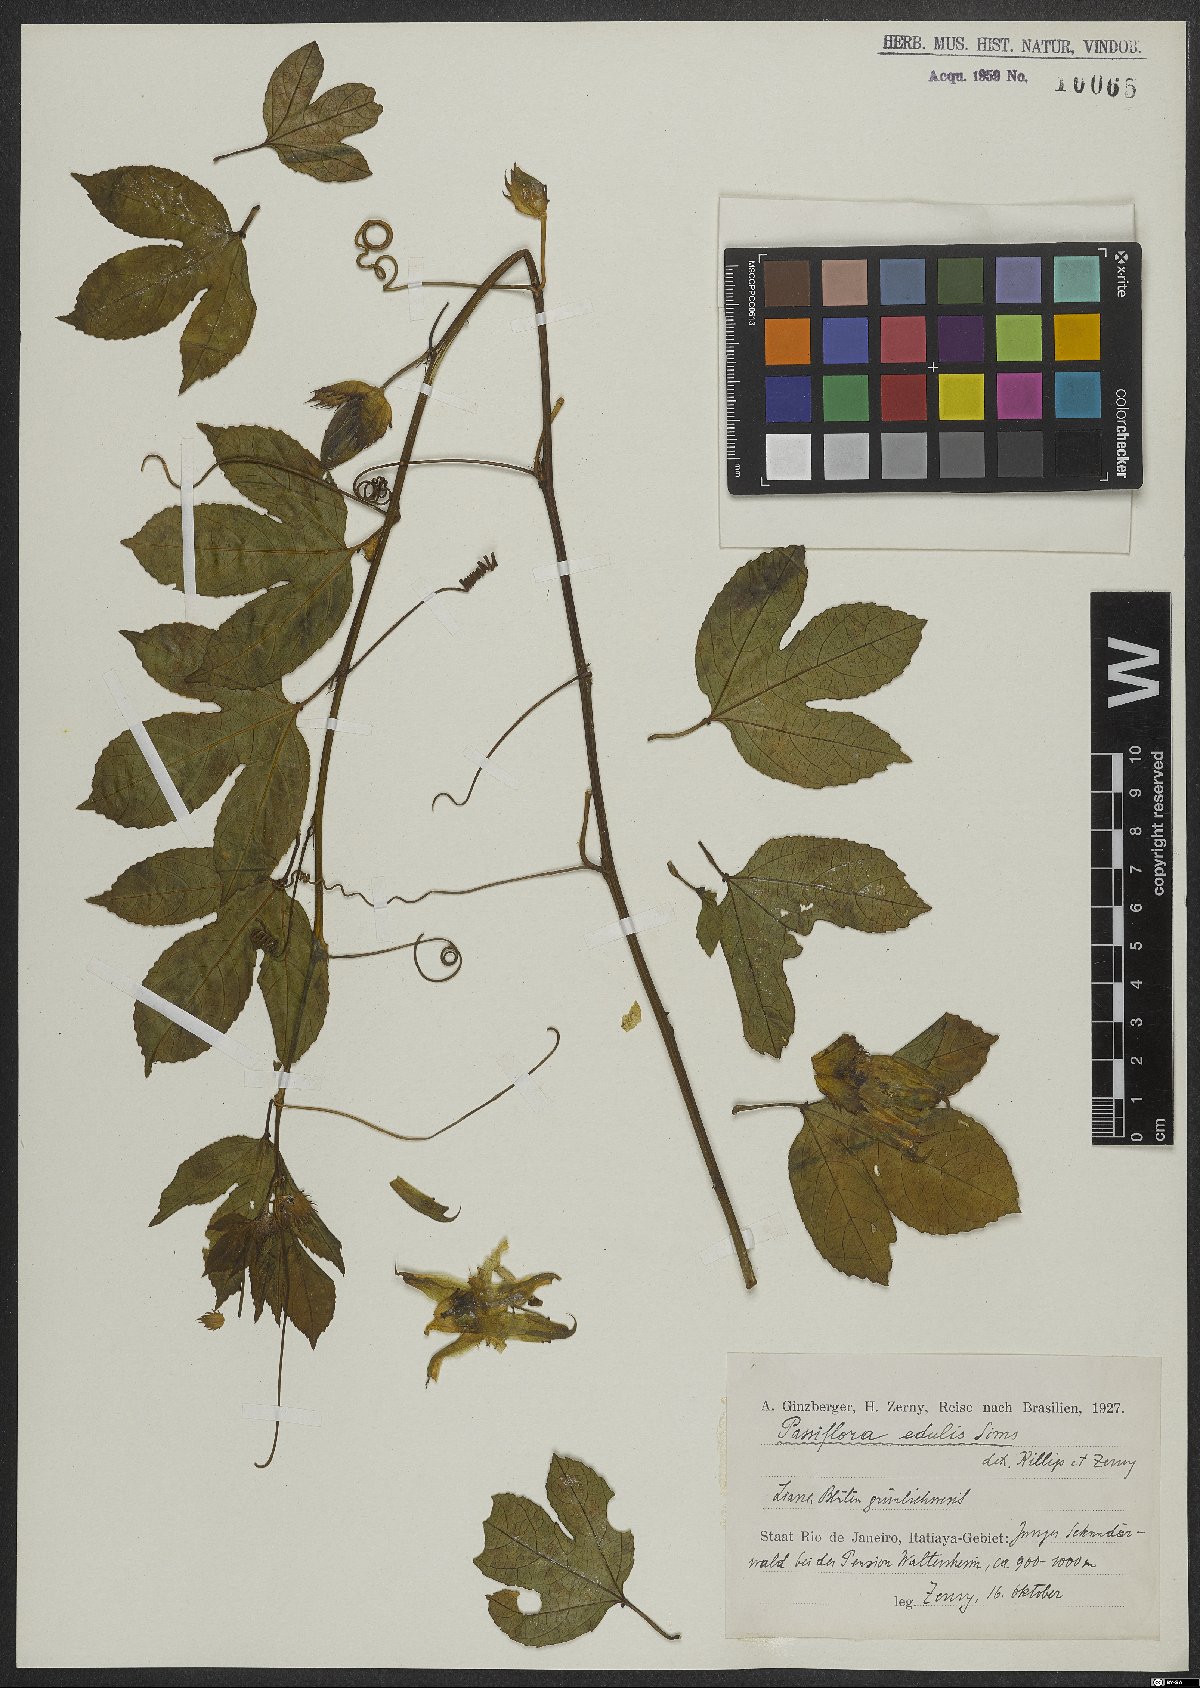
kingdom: Plantae
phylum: Tracheophyta
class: Magnoliopsida
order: Malpighiales
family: Passifloraceae
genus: Passiflora
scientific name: Passiflora edulis
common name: Purple granadilla
